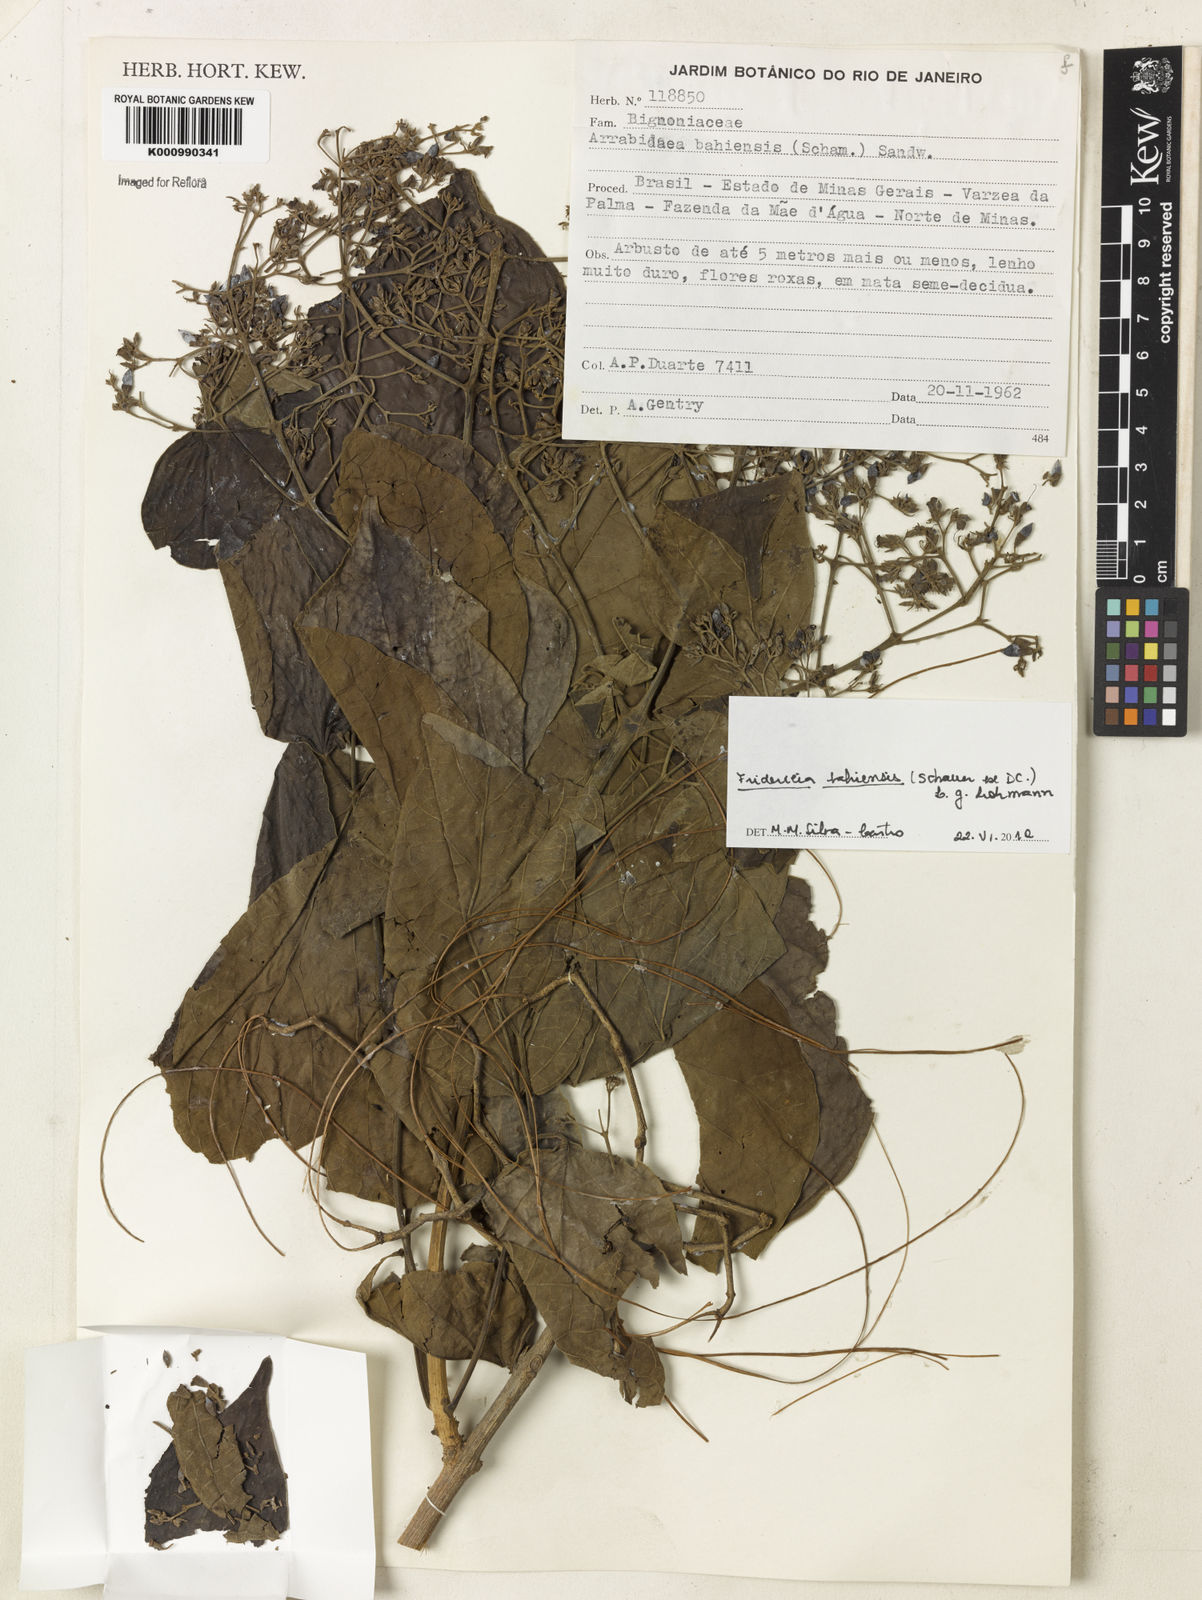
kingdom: Plantae
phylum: Tracheophyta
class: Magnoliopsida
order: Lamiales
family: Bignoniaceae
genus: Fridericia
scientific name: Fridericia bahiensis
